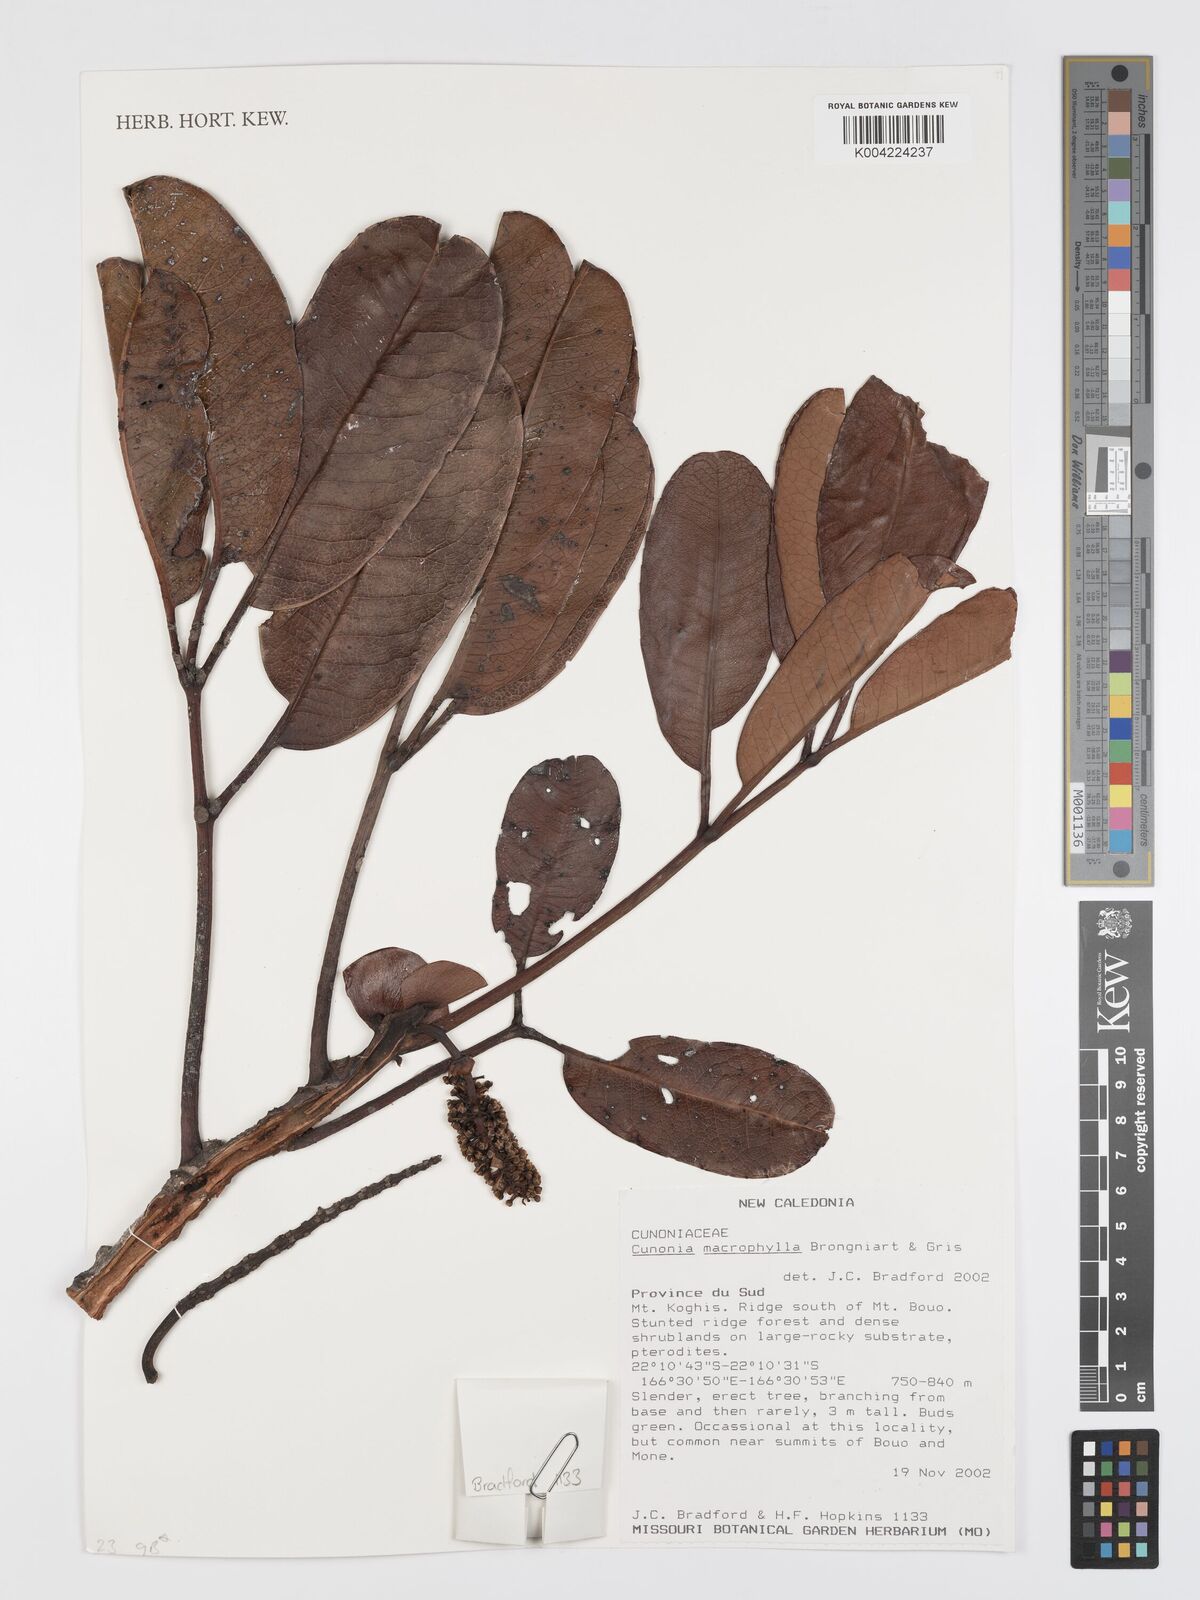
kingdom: Plantae
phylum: Tracheophyta
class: Magnoliopsida
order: Oxalidales
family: Cunoniaceae
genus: Cunonia
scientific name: Cunonia macrophylla
